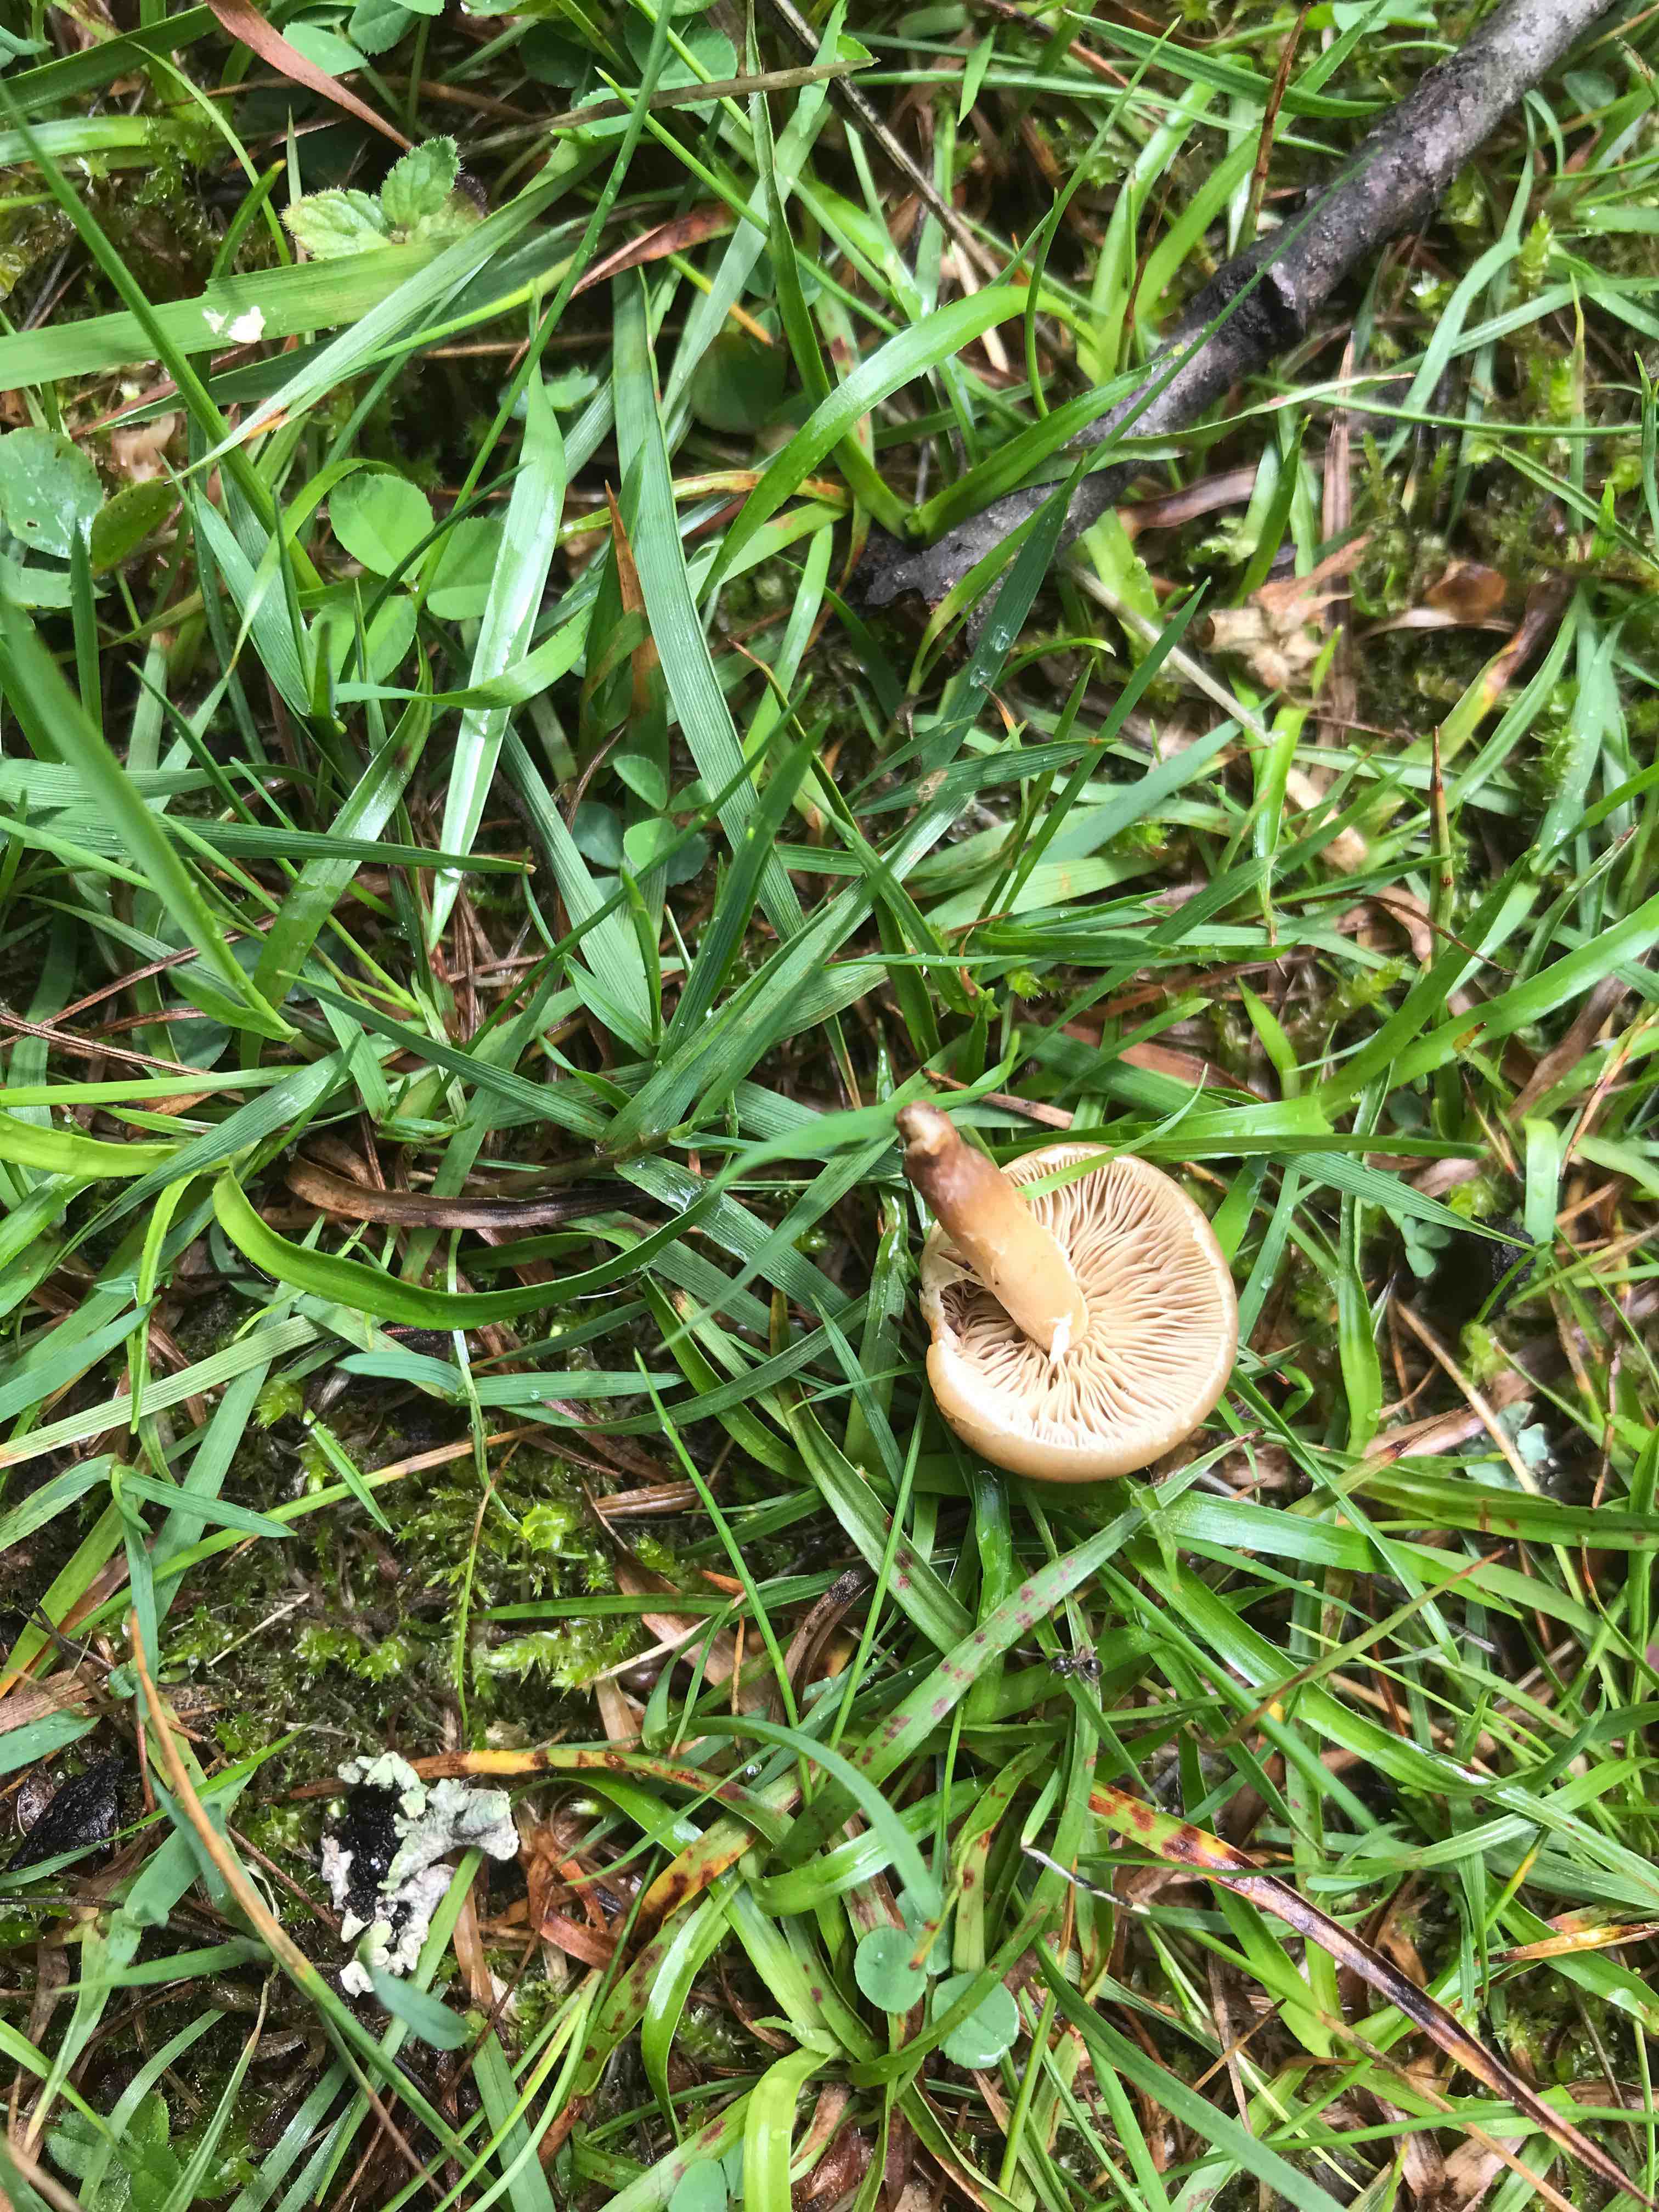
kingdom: Fungi
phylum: Basidiomycota
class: Agaricomycetes
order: Agaricales
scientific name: Agaricales
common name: champignonordenen
